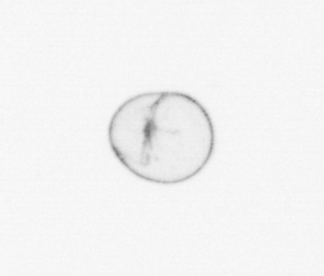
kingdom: Chromista
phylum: Myzozoa
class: Dinophyceae
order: Noctilucales
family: Noctilucaceae
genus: Noctiluca
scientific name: Noctiluca scintillans
